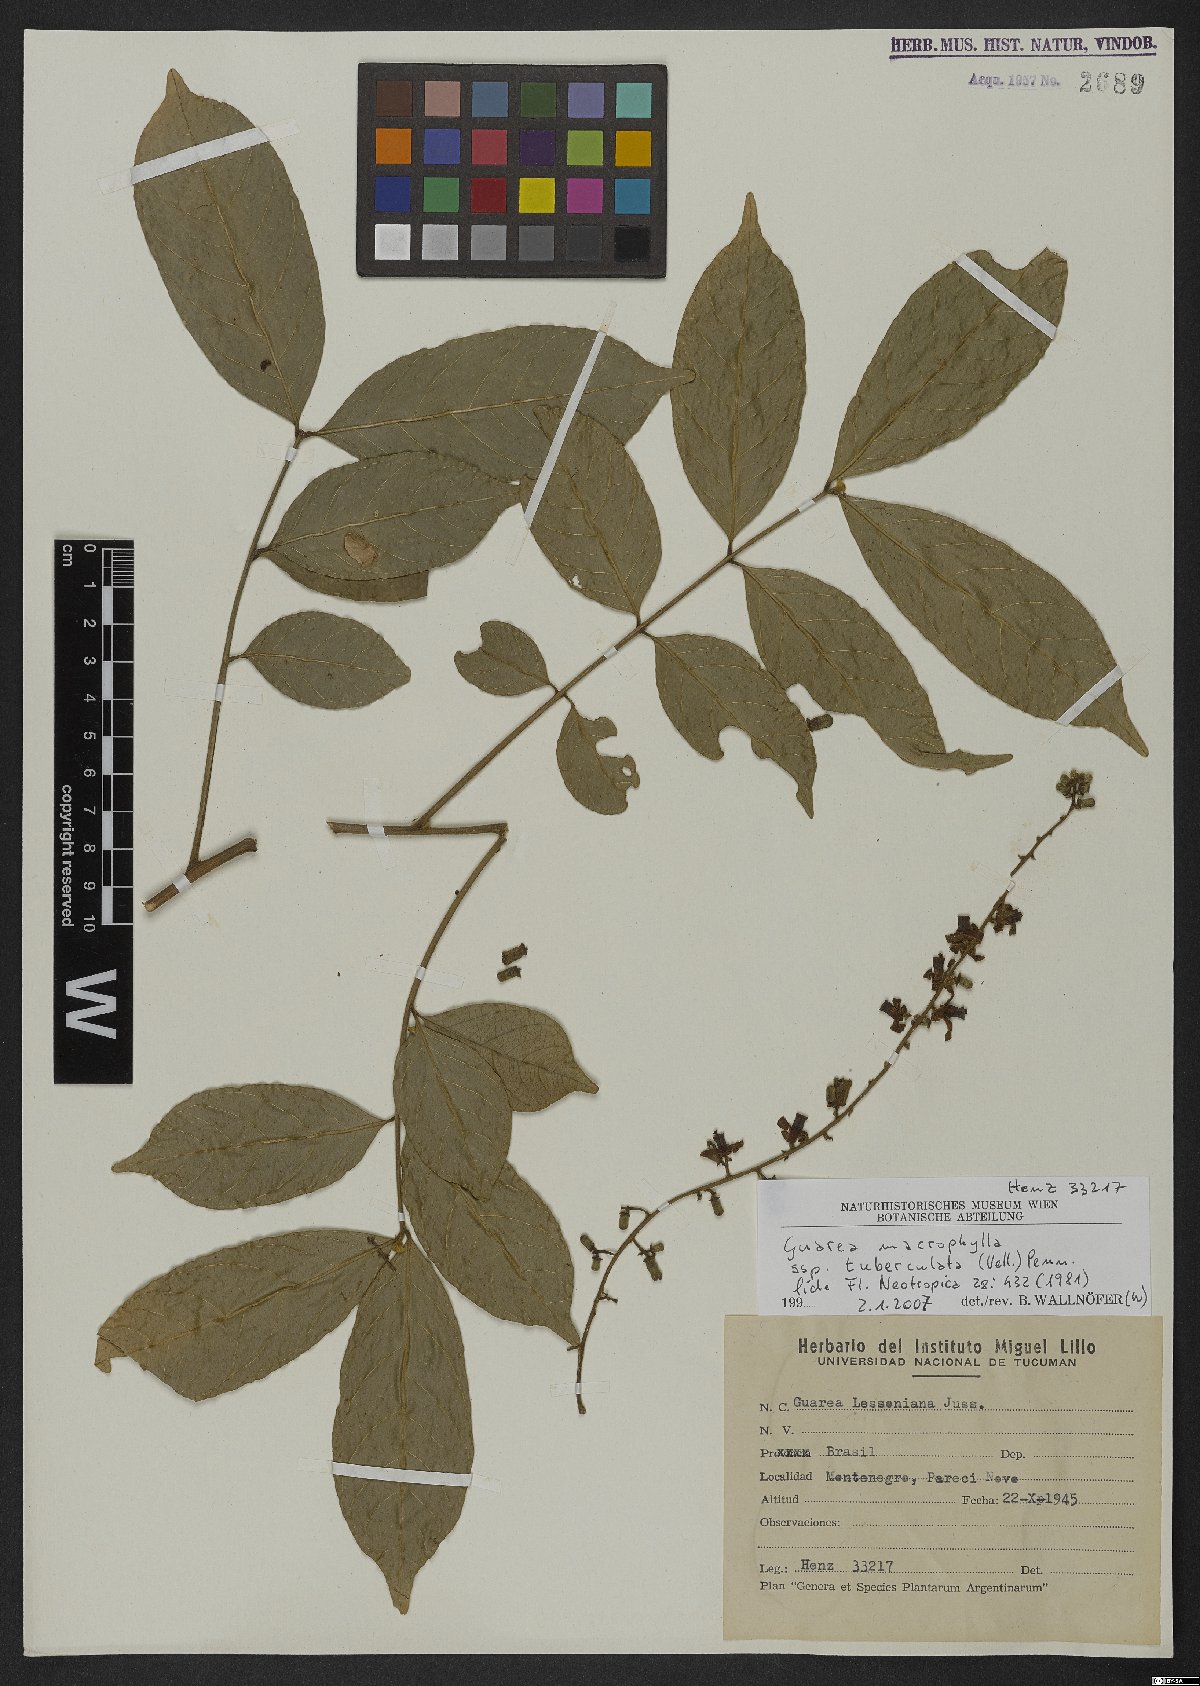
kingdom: Plantae
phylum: Tracheophyta
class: Magnoliopsida
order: Sapindales
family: Meliaceae
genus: Guarea
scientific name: Guarea macrophylla
